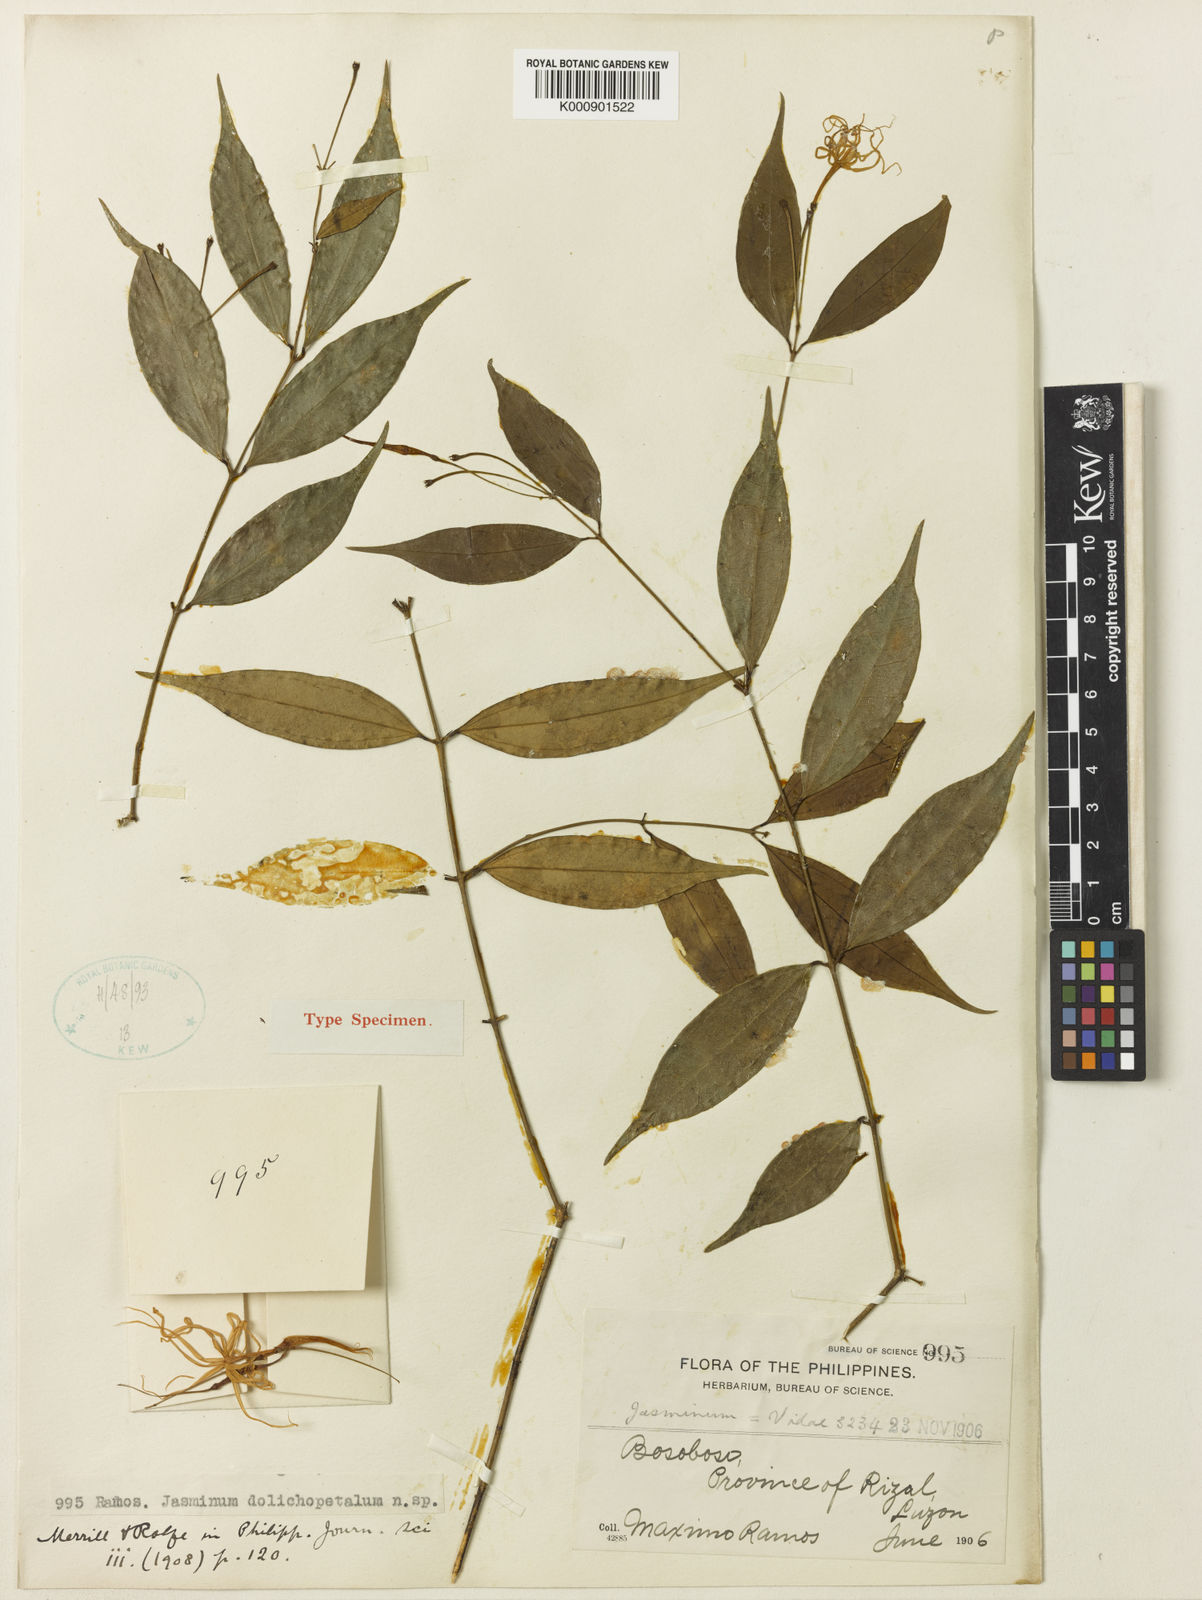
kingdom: Plantae
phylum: Tracheophyta
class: Magnoliopsida
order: Lamiales
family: Oleaceae
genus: Jasminum
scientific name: Jasminum longipetalum
